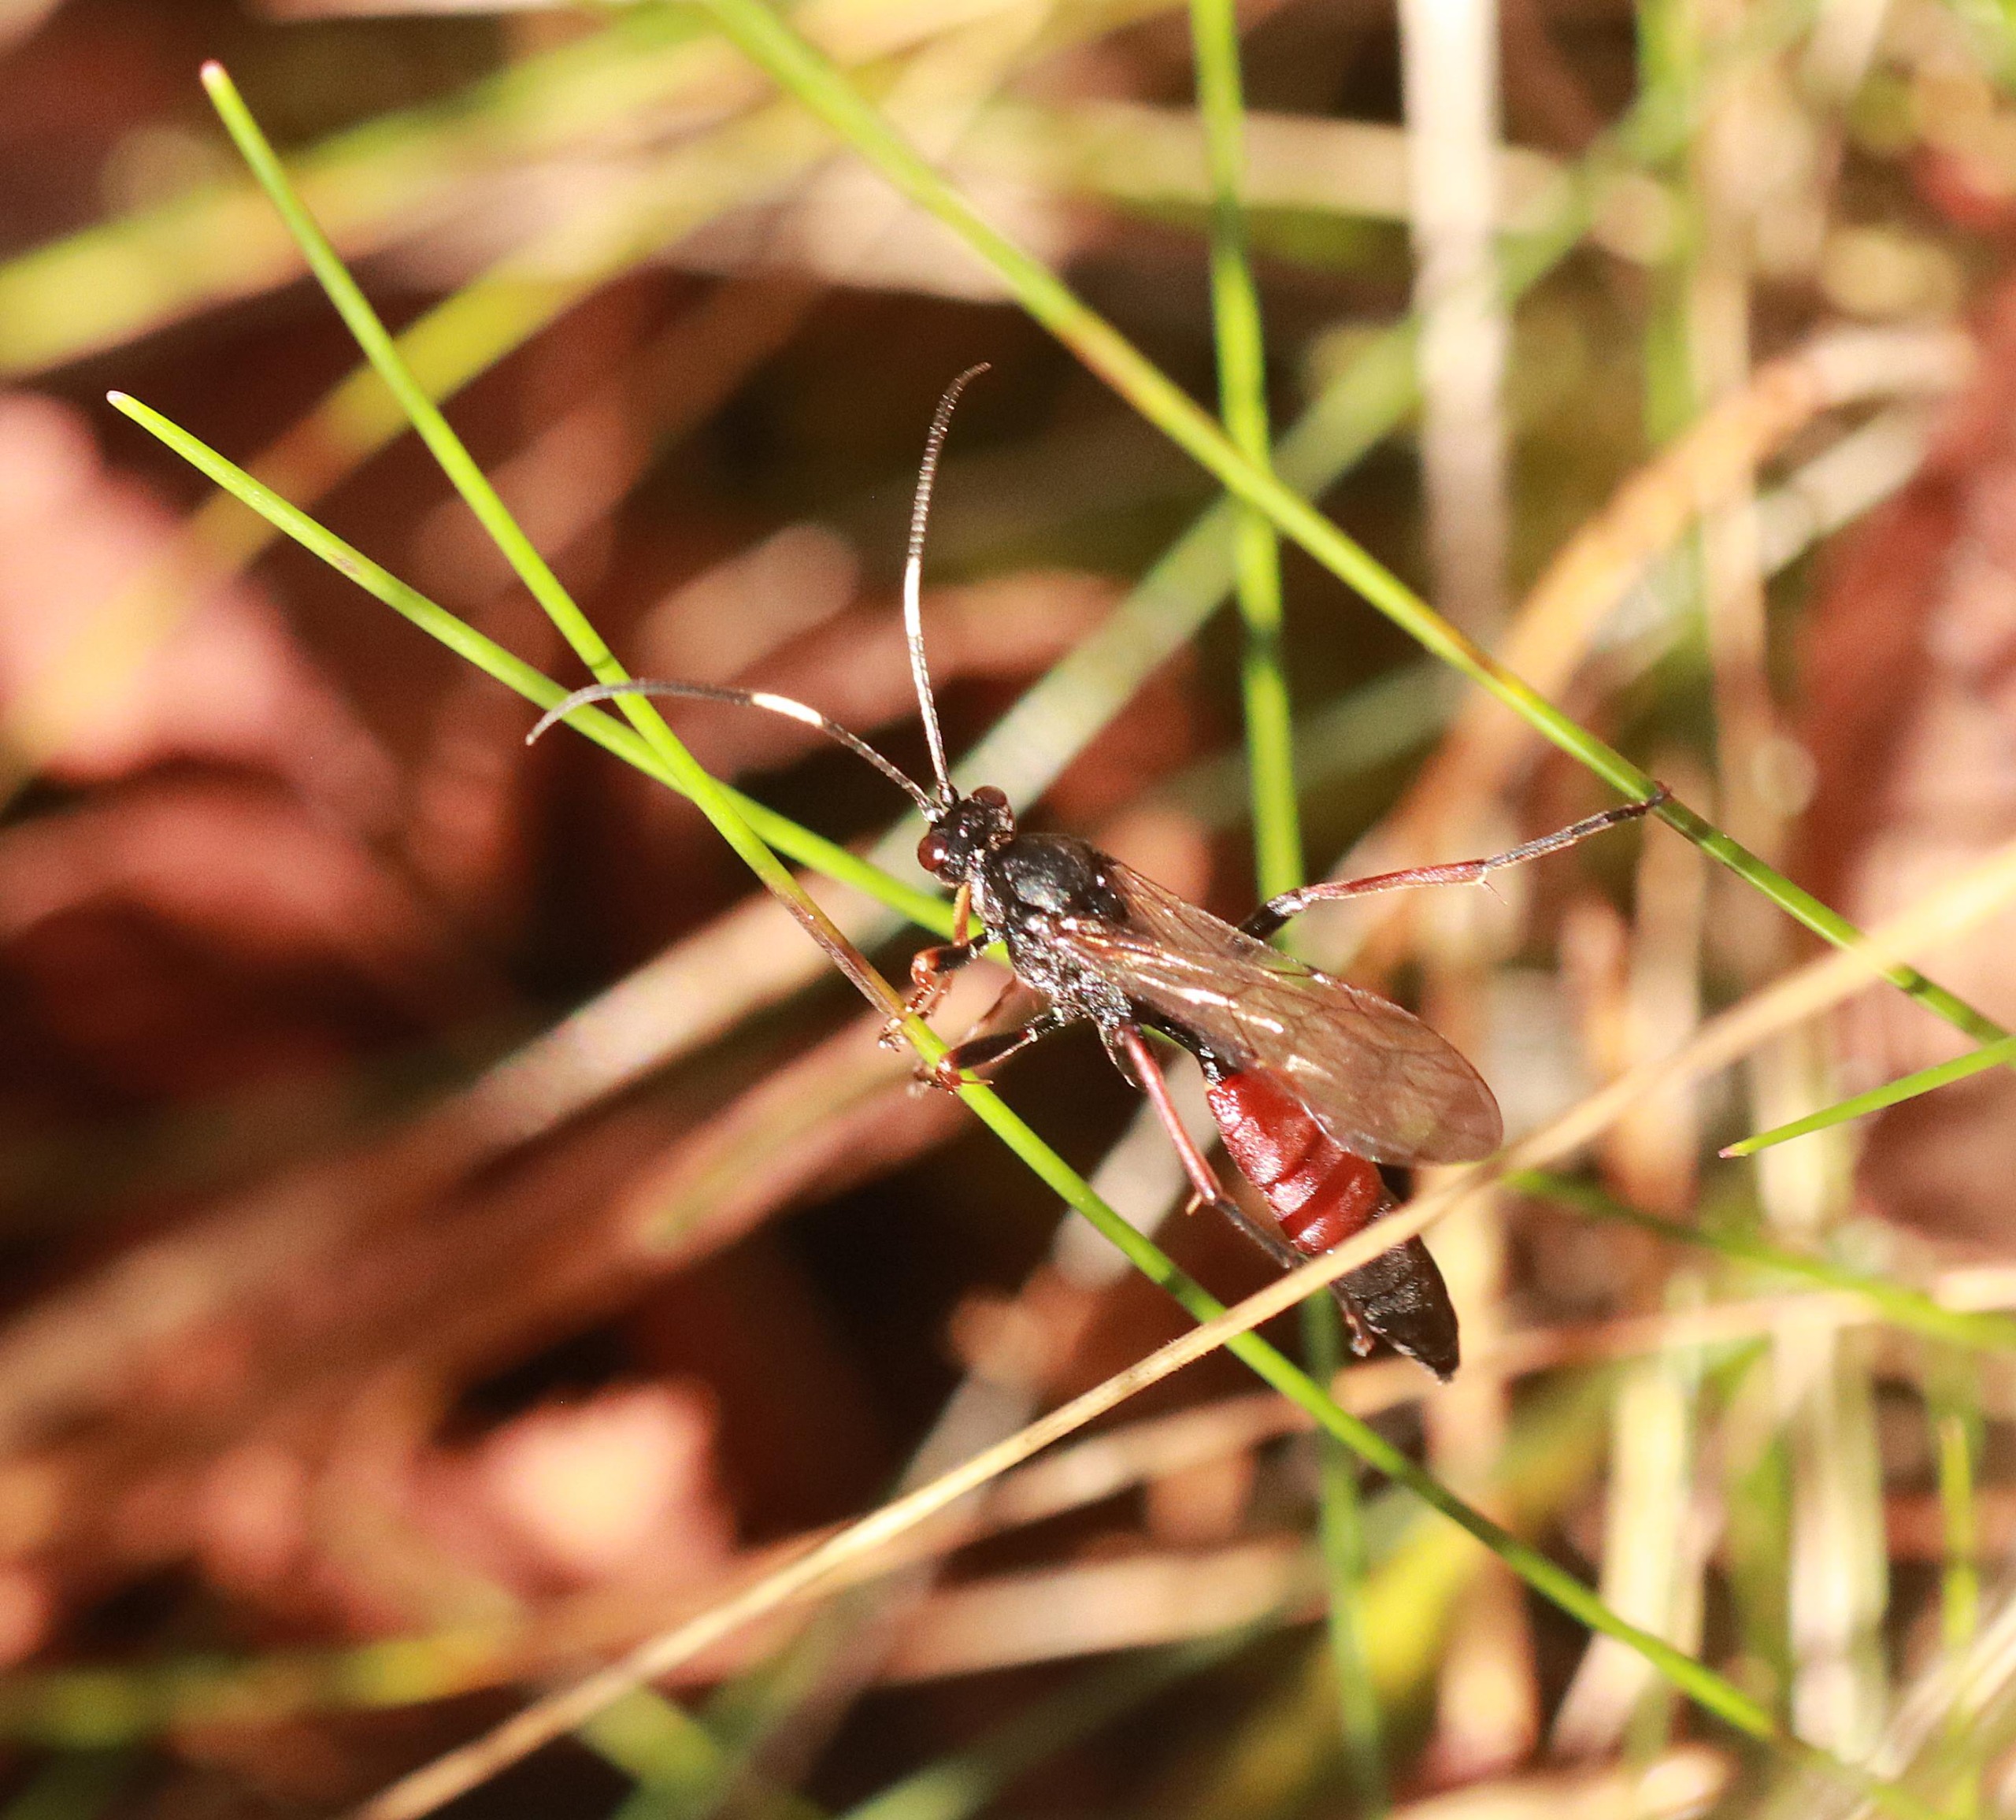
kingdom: Animalia
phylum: Arthropoda
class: Insecta
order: Hymenoptera
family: Ichneumonidae
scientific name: Ichneumonidae
